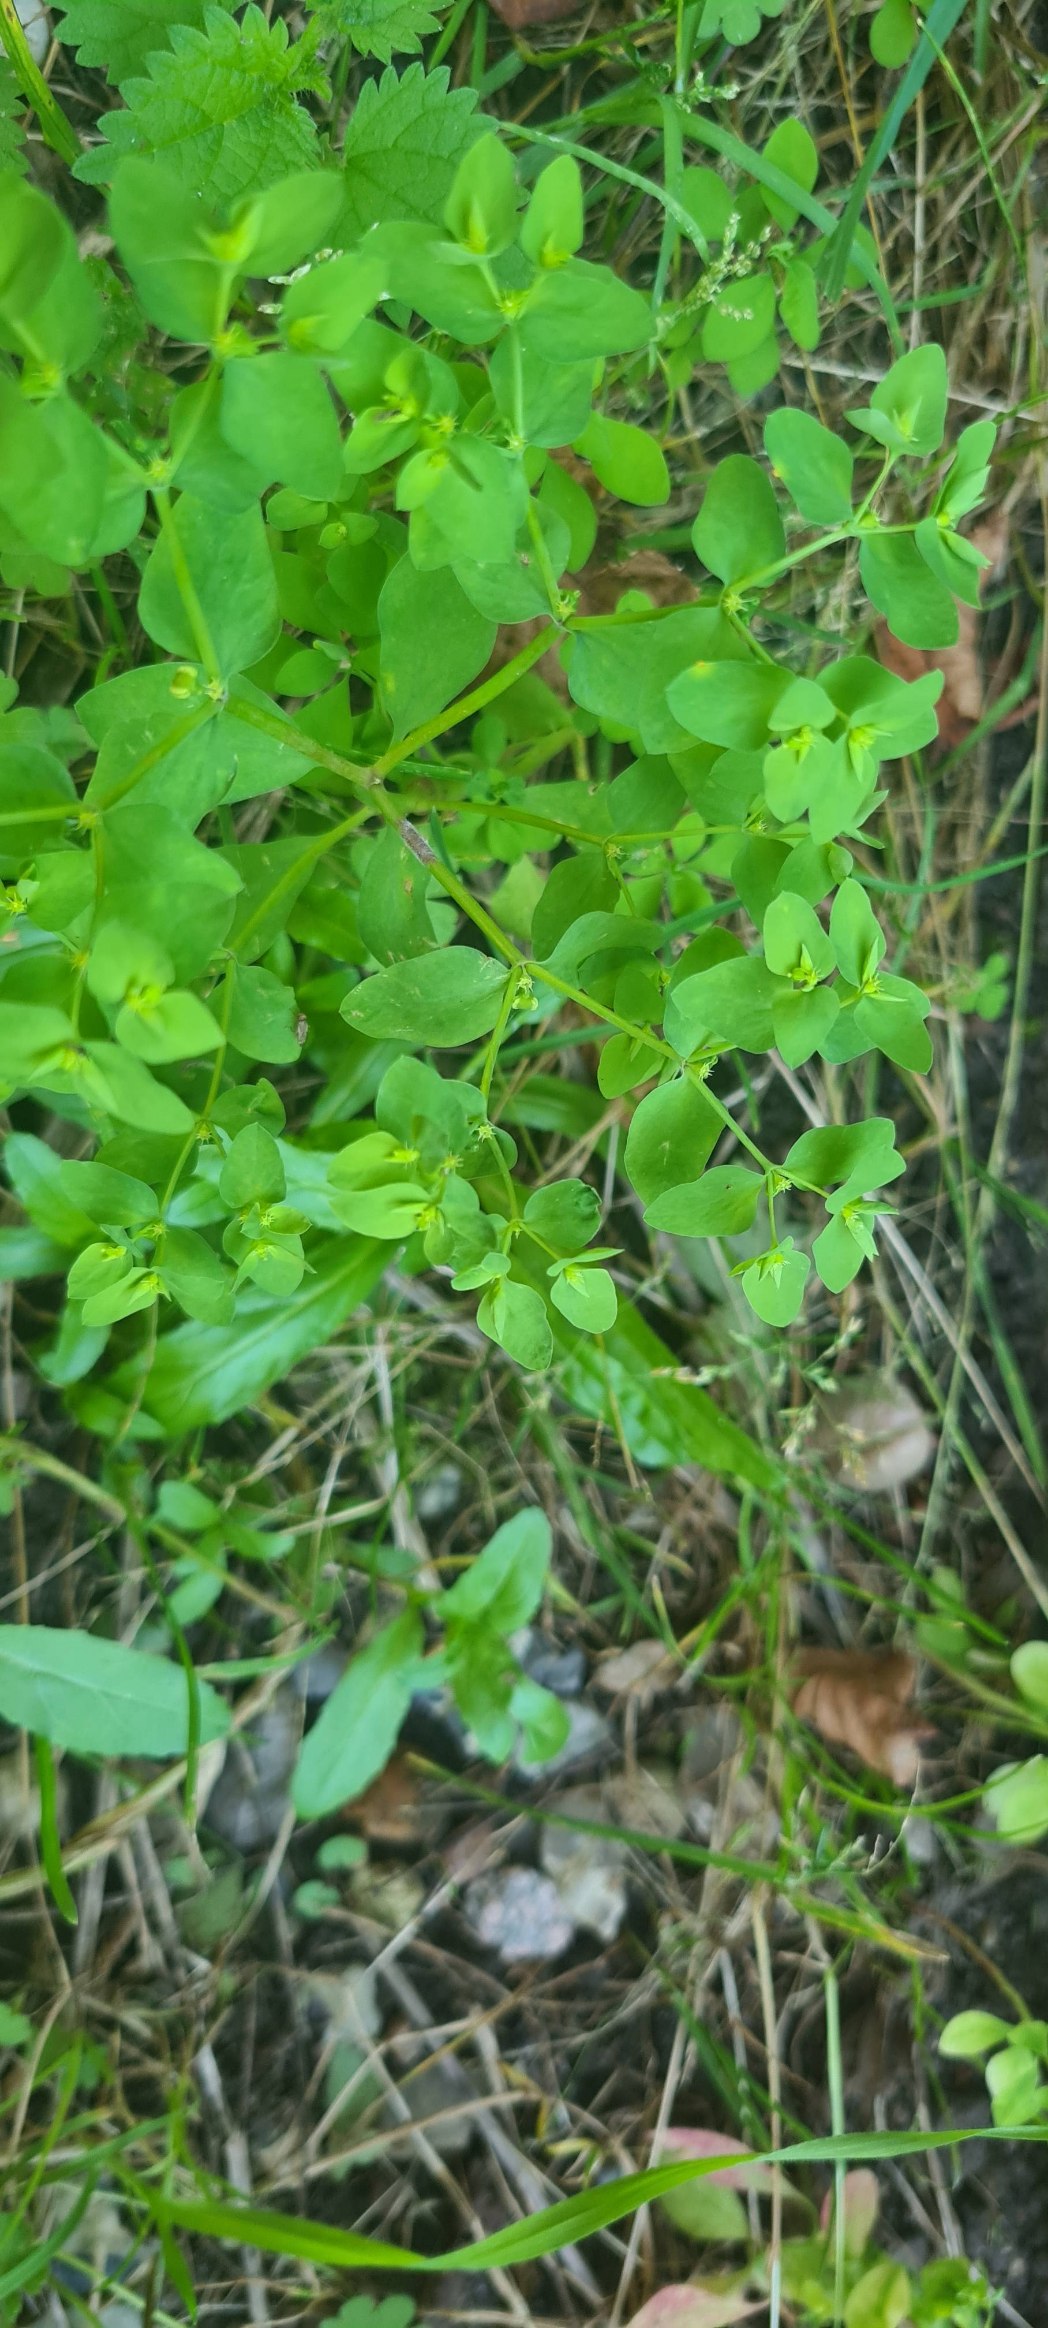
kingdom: Plantae
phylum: Tracheophyta
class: Magnoliopsida
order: Malpighiales
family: Euphorbiaceae
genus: Euphorbia
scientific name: Euphorbia peplus
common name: Gaffel-vortemælk
